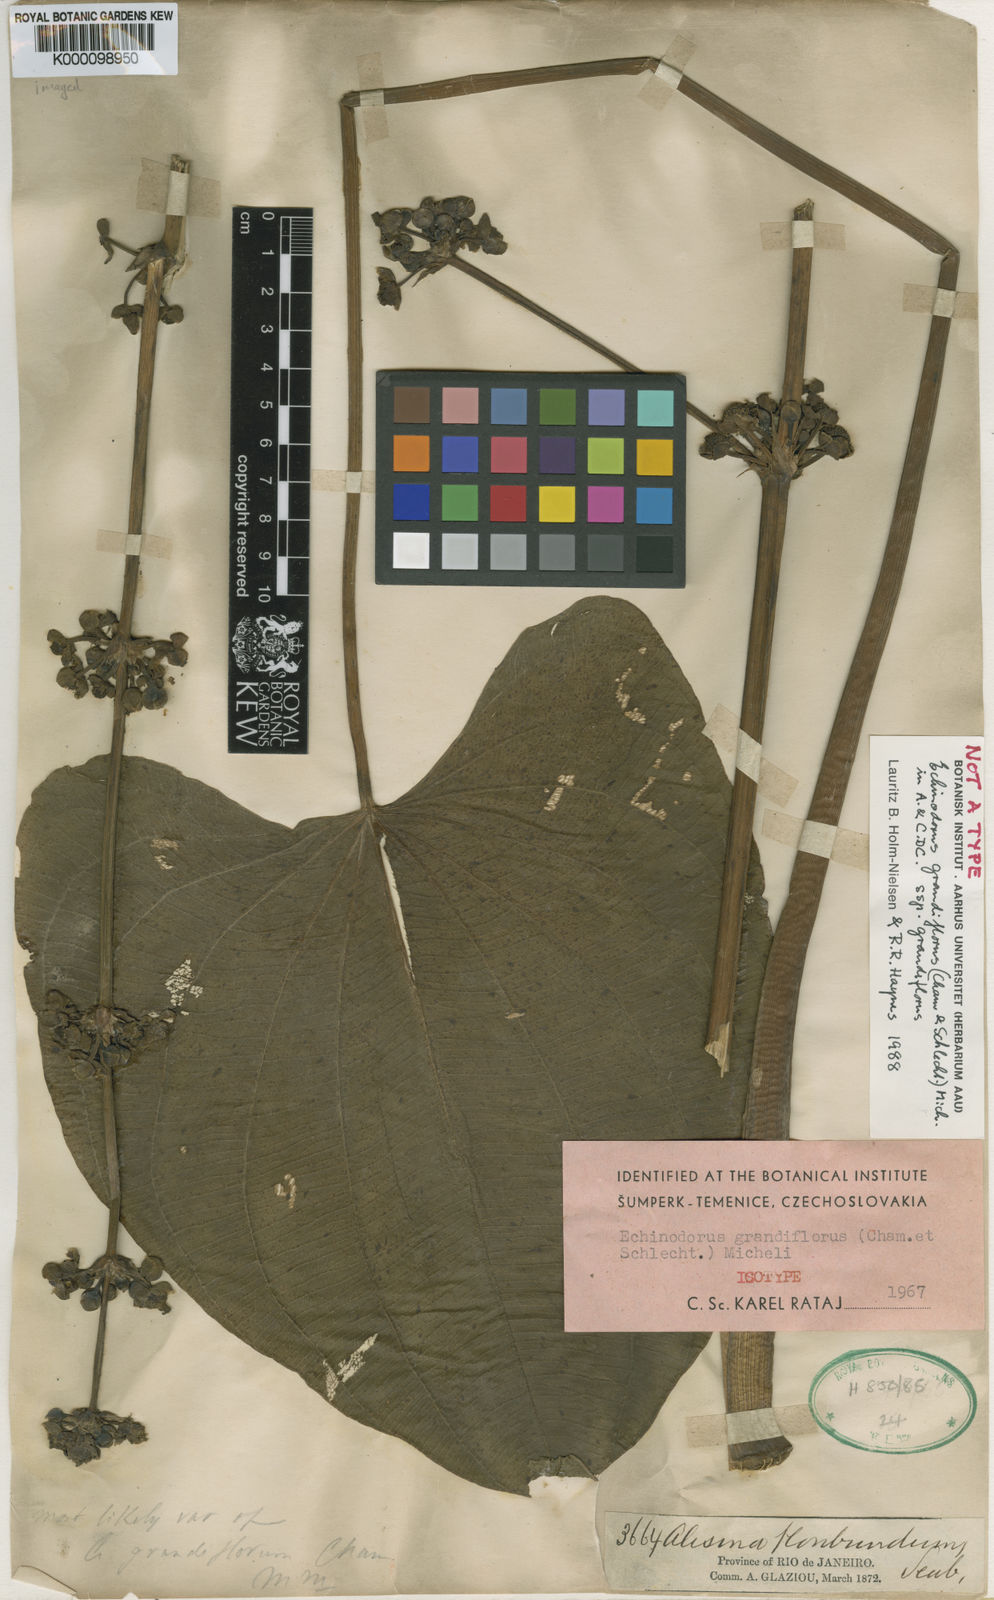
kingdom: Plantae
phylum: Tracheophyta
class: Liliopsida
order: Alismatales
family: Alismataceae
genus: Aquarius
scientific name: Aquarius grandiflorus
